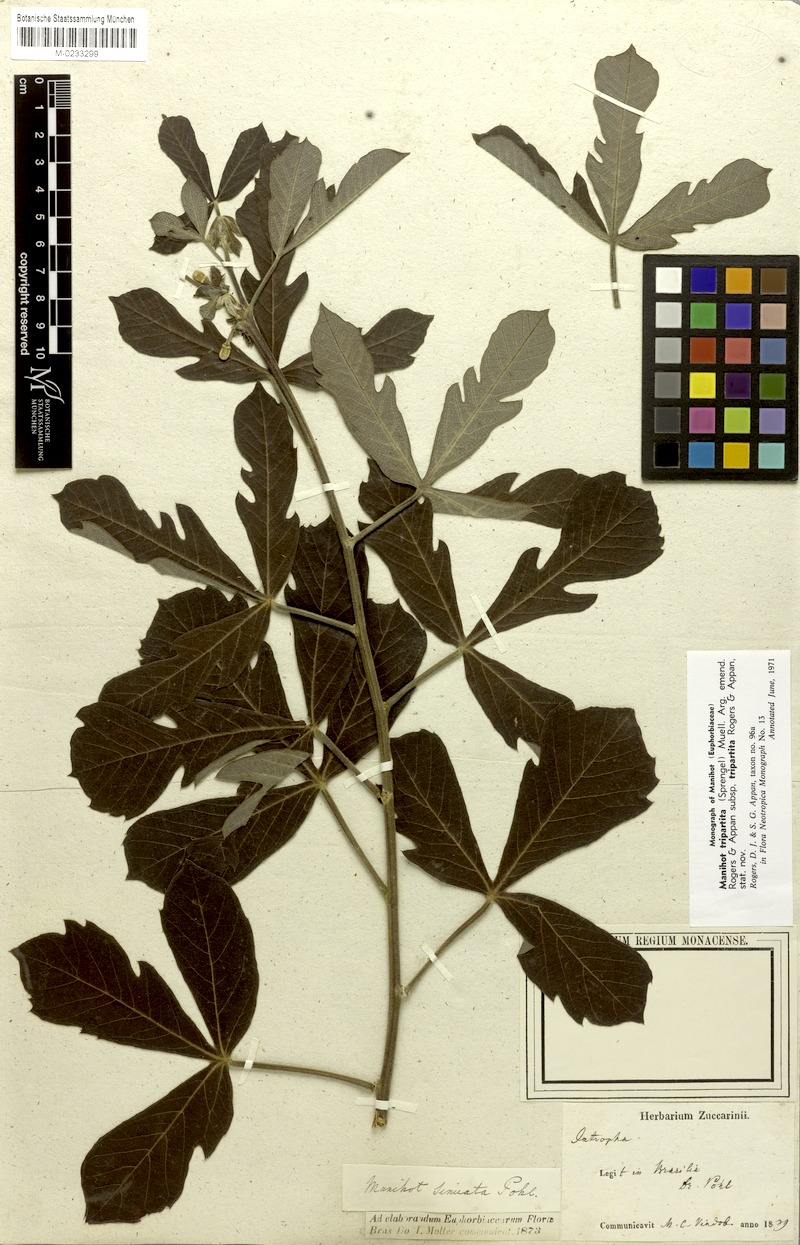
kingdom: Plantae
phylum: Tracheophyta
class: Magnoliopsida
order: Malpighiales
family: Euphorbiaceae
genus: Manihot
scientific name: Manihot tripartita
